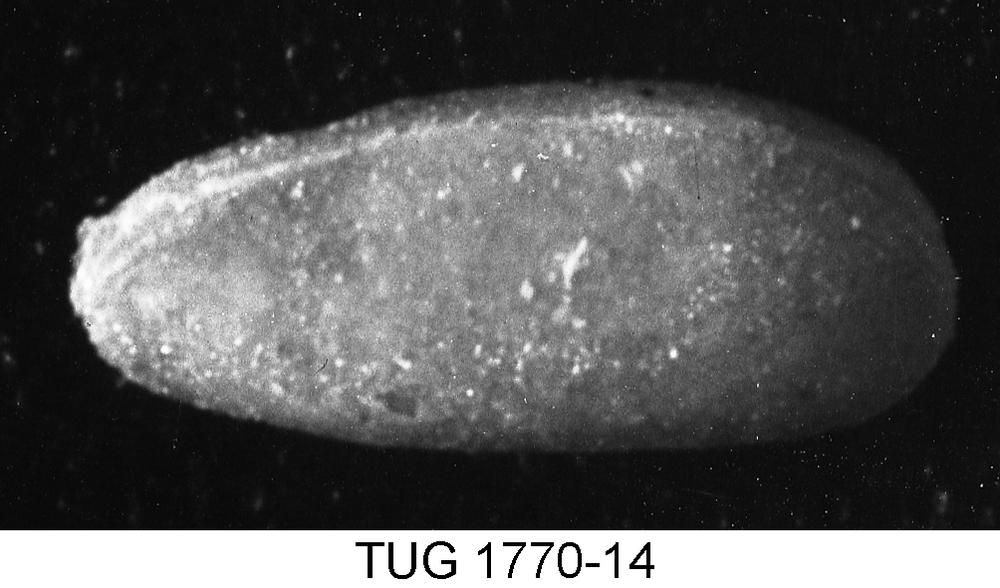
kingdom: Animalia
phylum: Arthropoda
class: Ostracoda
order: Podocopida
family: Pontocyprididae
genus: Pontocypris
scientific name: Pontocypris
